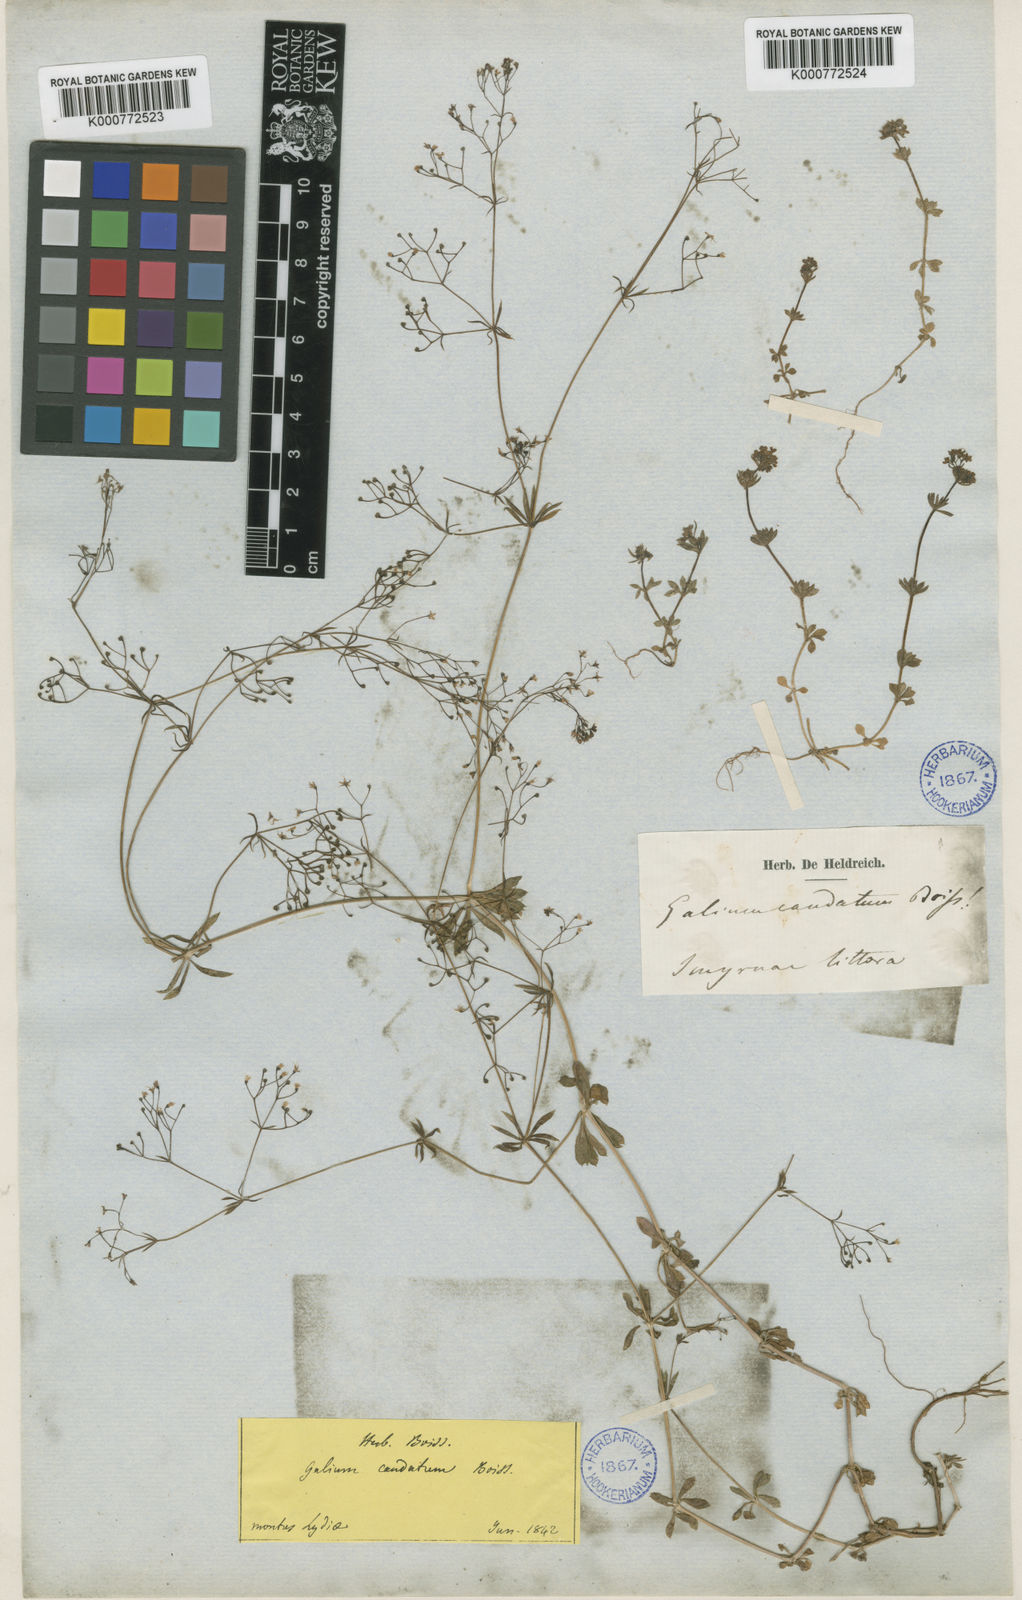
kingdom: Plantae
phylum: Tracheophyta
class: Magnoliopsida
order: Gentianales
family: Rubiaceae
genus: Galium
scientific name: Galium eriocarpum
